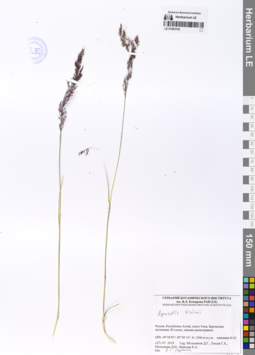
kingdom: Plantae
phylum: Tracheophyta
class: Liliopsida
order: Poales
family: Poaceae
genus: Agrostis
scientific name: Agrostis vinealis
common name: Brown bent
